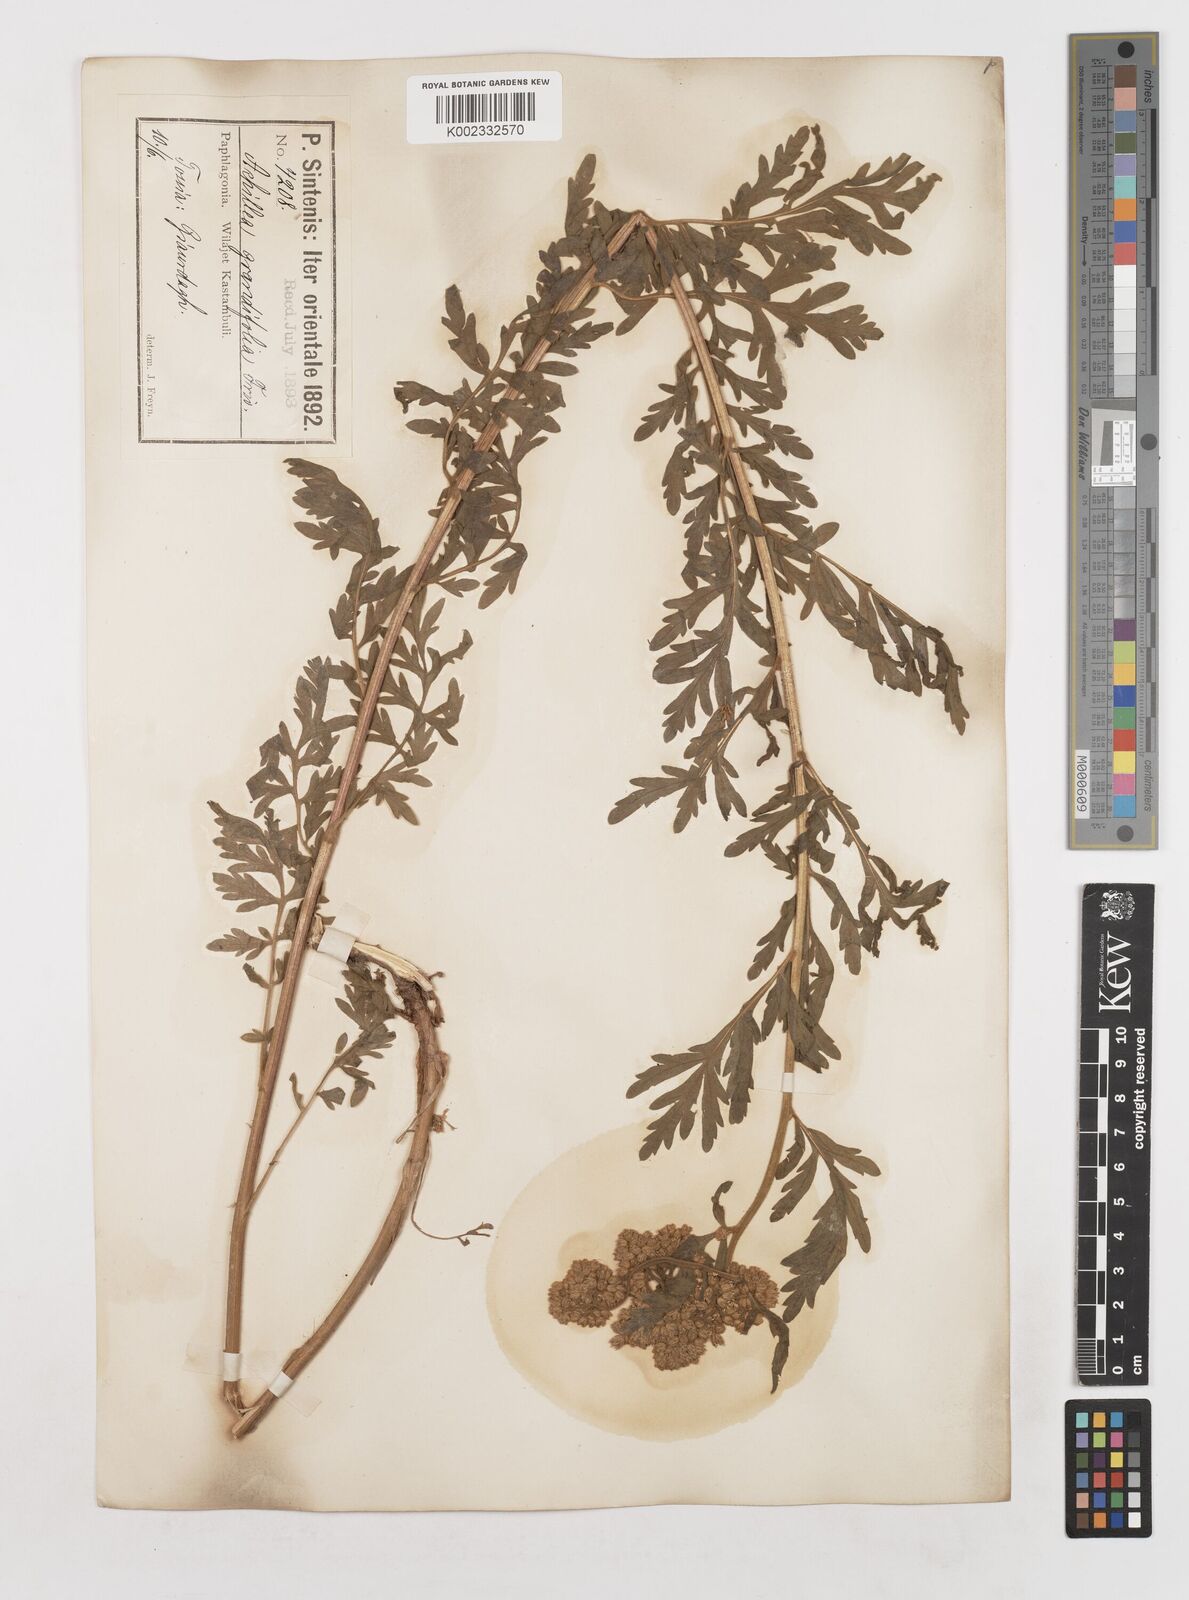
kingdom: Plantae
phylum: Tracheophyta
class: Magnoliopsida
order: Asterales
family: Asteraceae
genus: Achillea
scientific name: Achillea grandifolia
